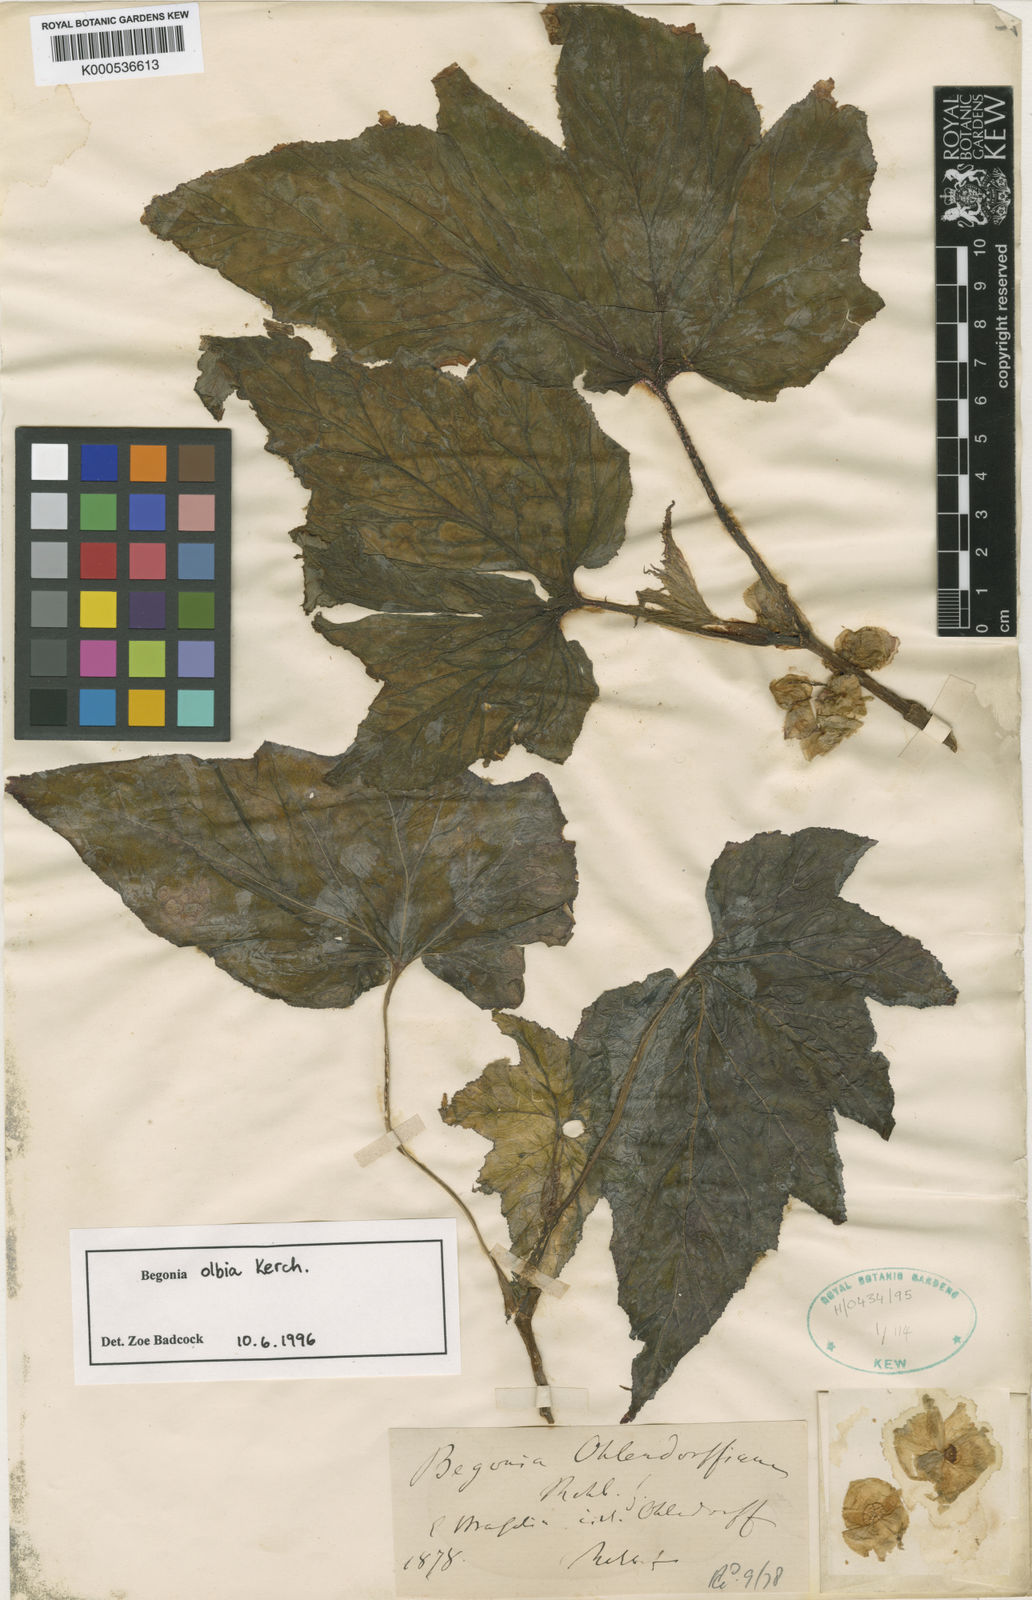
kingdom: Plantae
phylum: Tracheophyta
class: Magnoliopsida
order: Cucurbitales
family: Begoniaceae
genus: Begonia
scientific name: Begonia olbia
